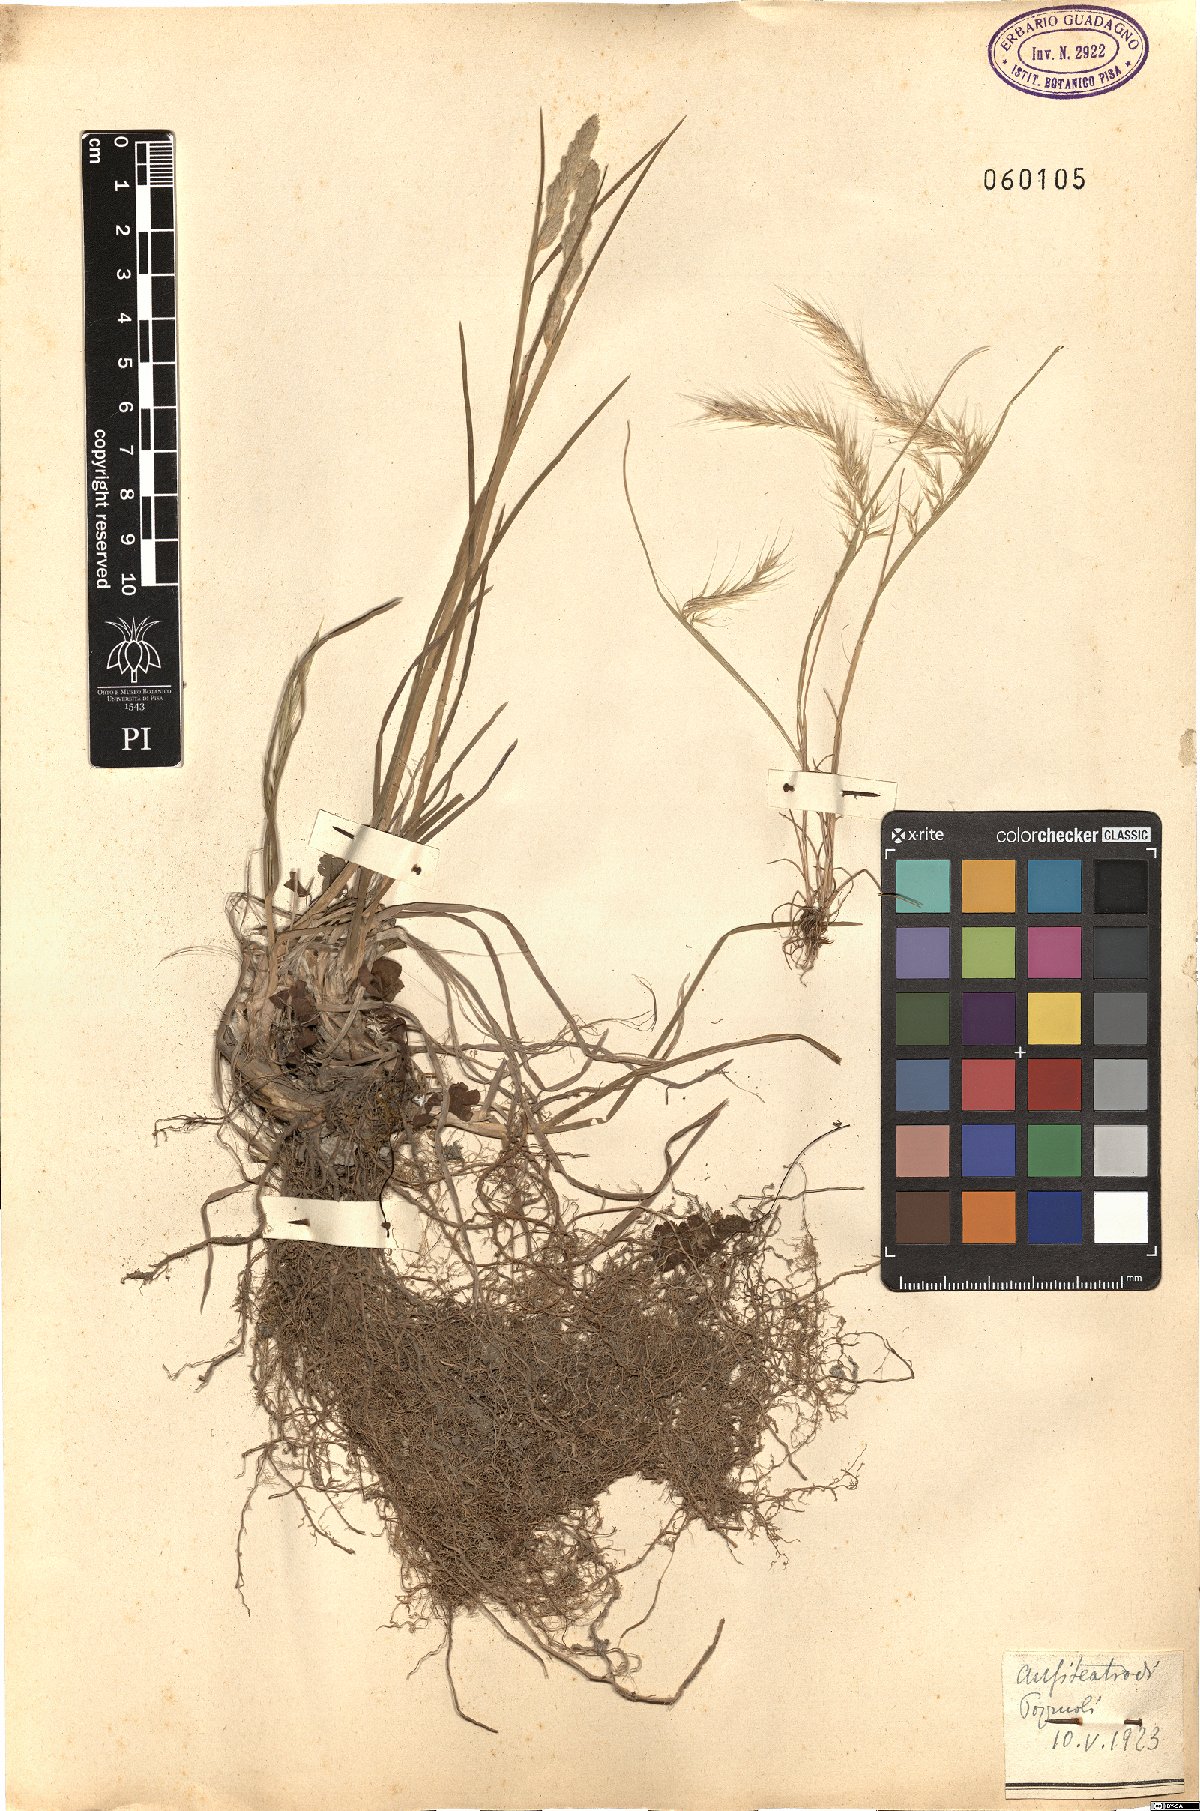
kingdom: Plantae
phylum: Tracheophyta
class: Liliopsida
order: Poales
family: Poaceae
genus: Festuca
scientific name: Festuca
